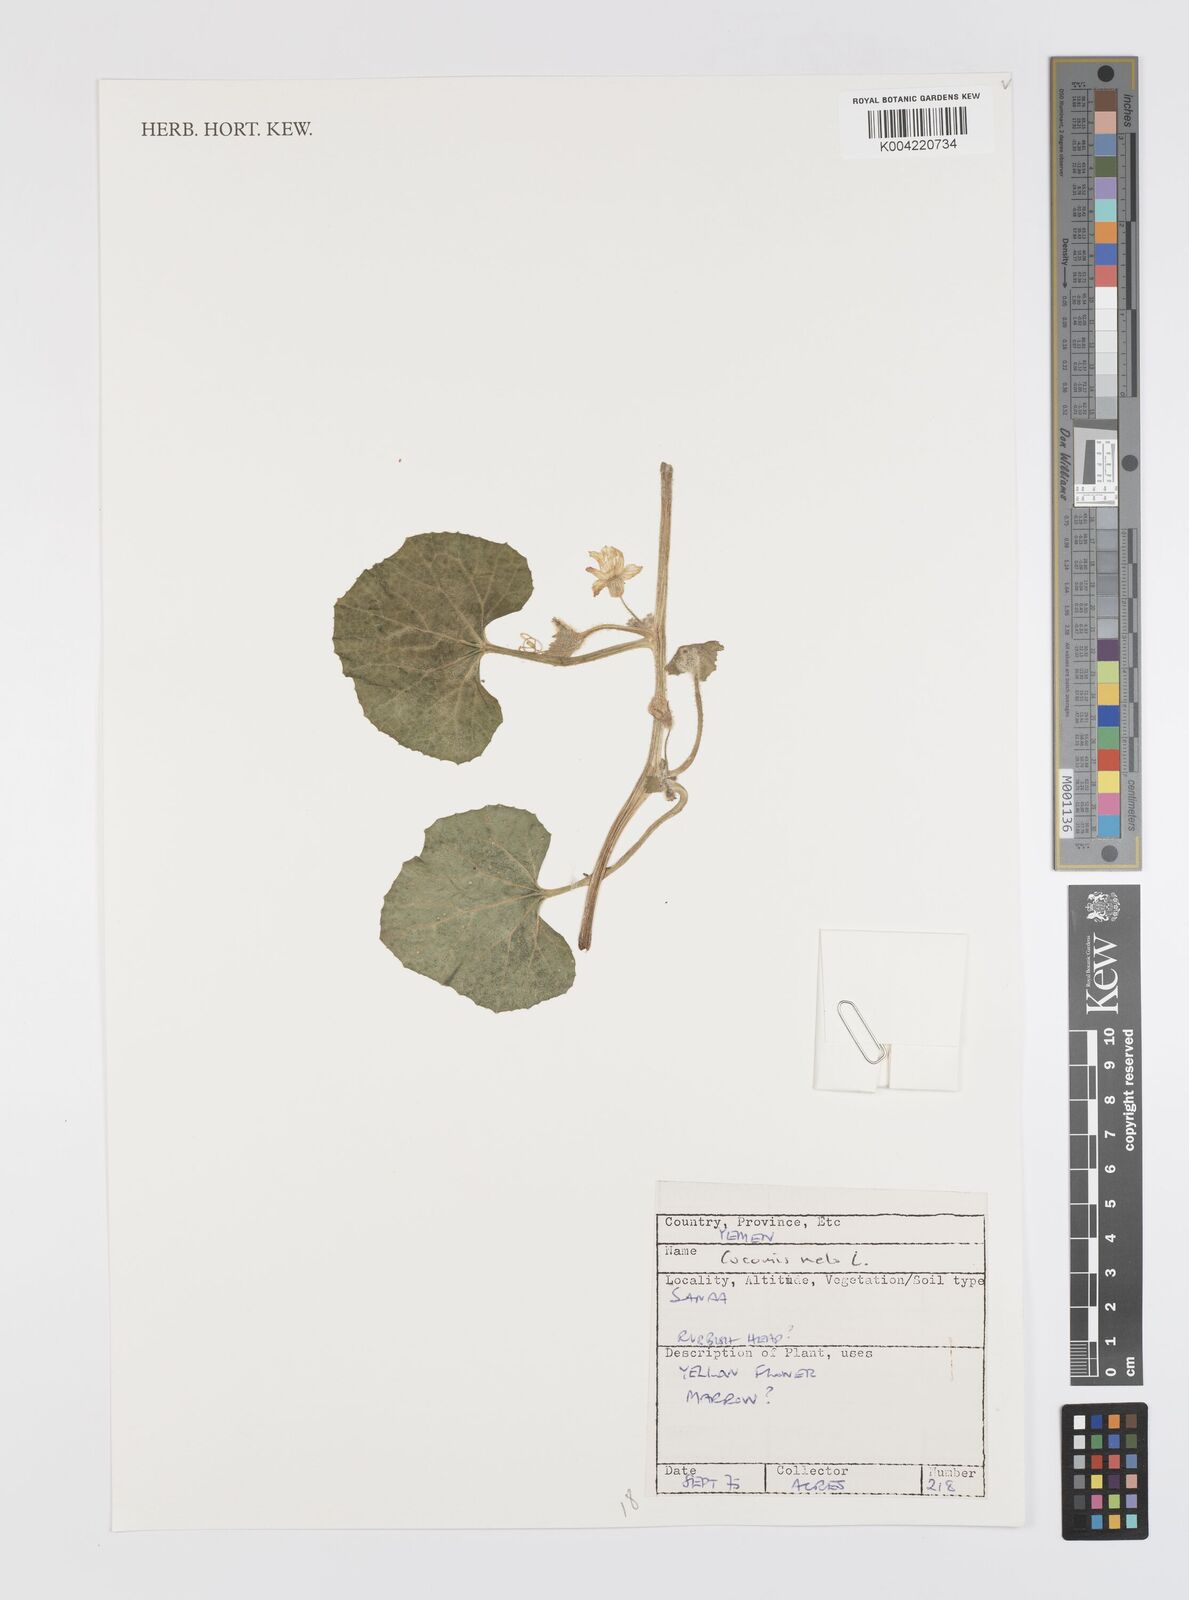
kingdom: Plantae
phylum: Tracheophyta
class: Magnoliopsida
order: Cucurbitales
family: Cucurbitaceae
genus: Cucumis
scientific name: Cucumis melo
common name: Melon
